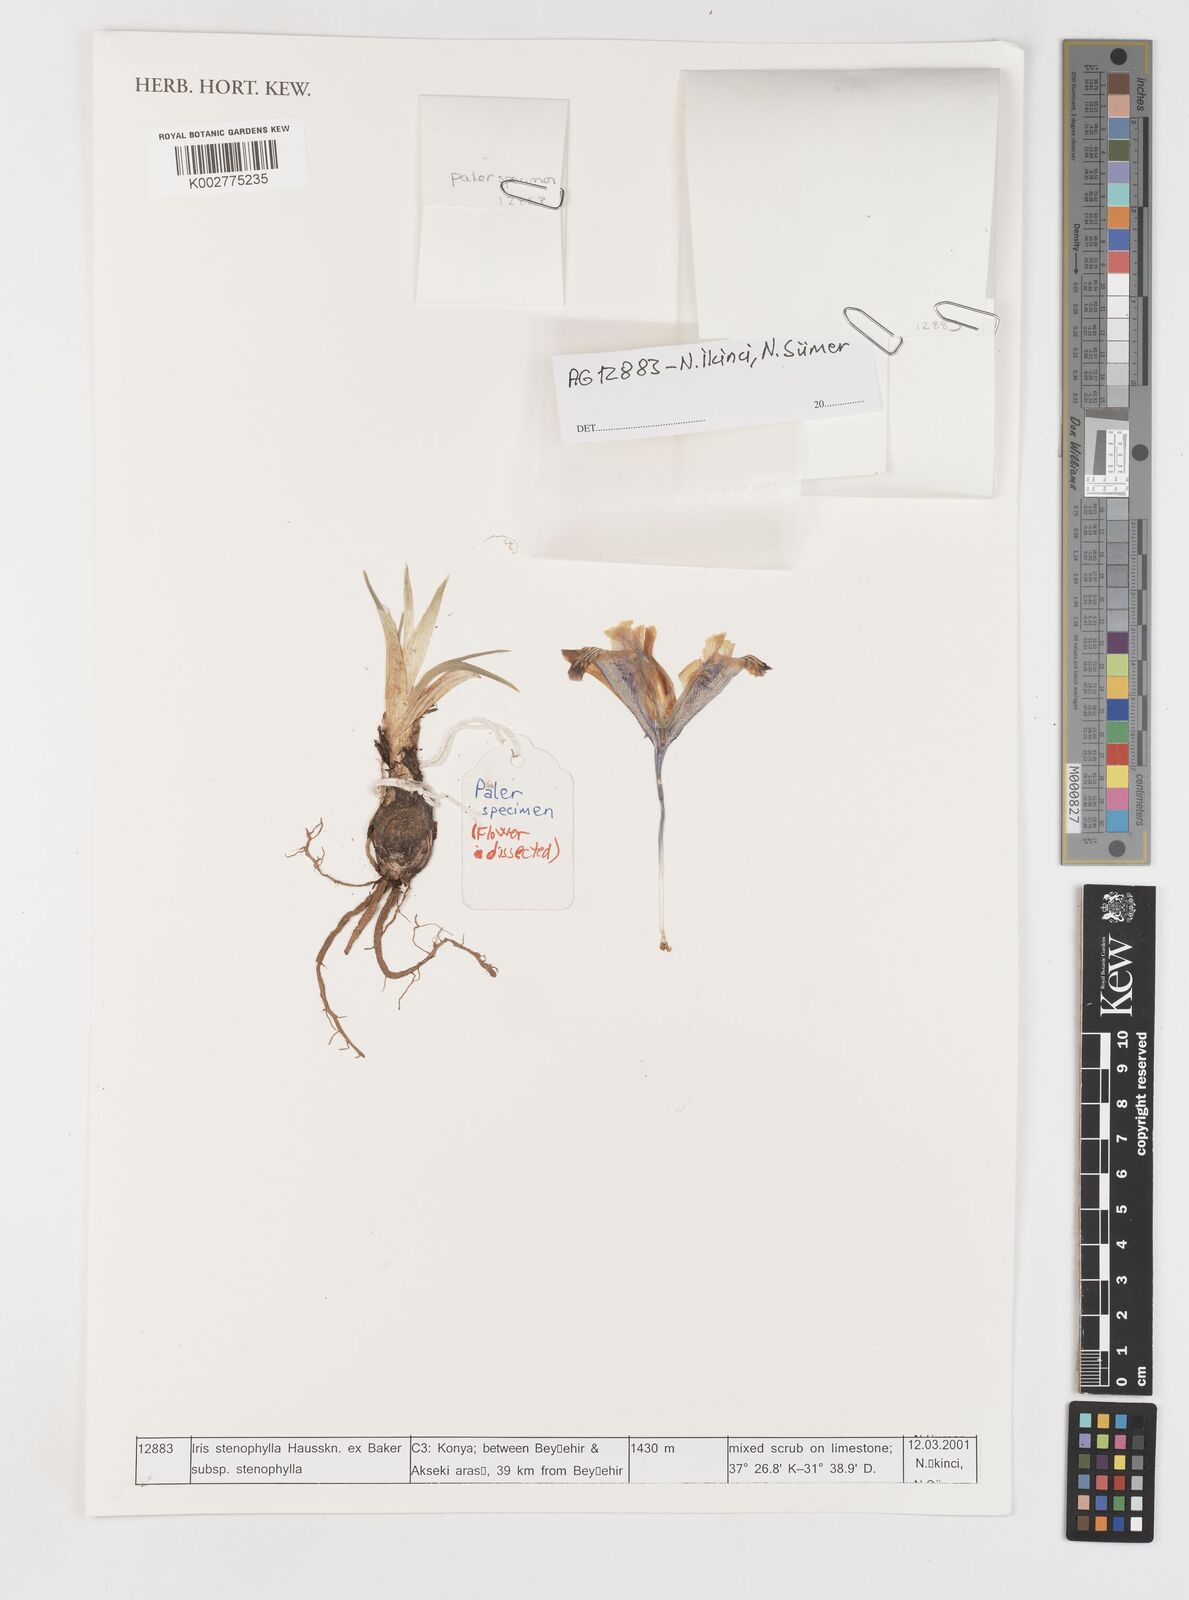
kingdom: Plantae
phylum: Tracheophyta
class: Liliopsida
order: Asparagales
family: Iridaceae
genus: Iris
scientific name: Iris stenophylla
